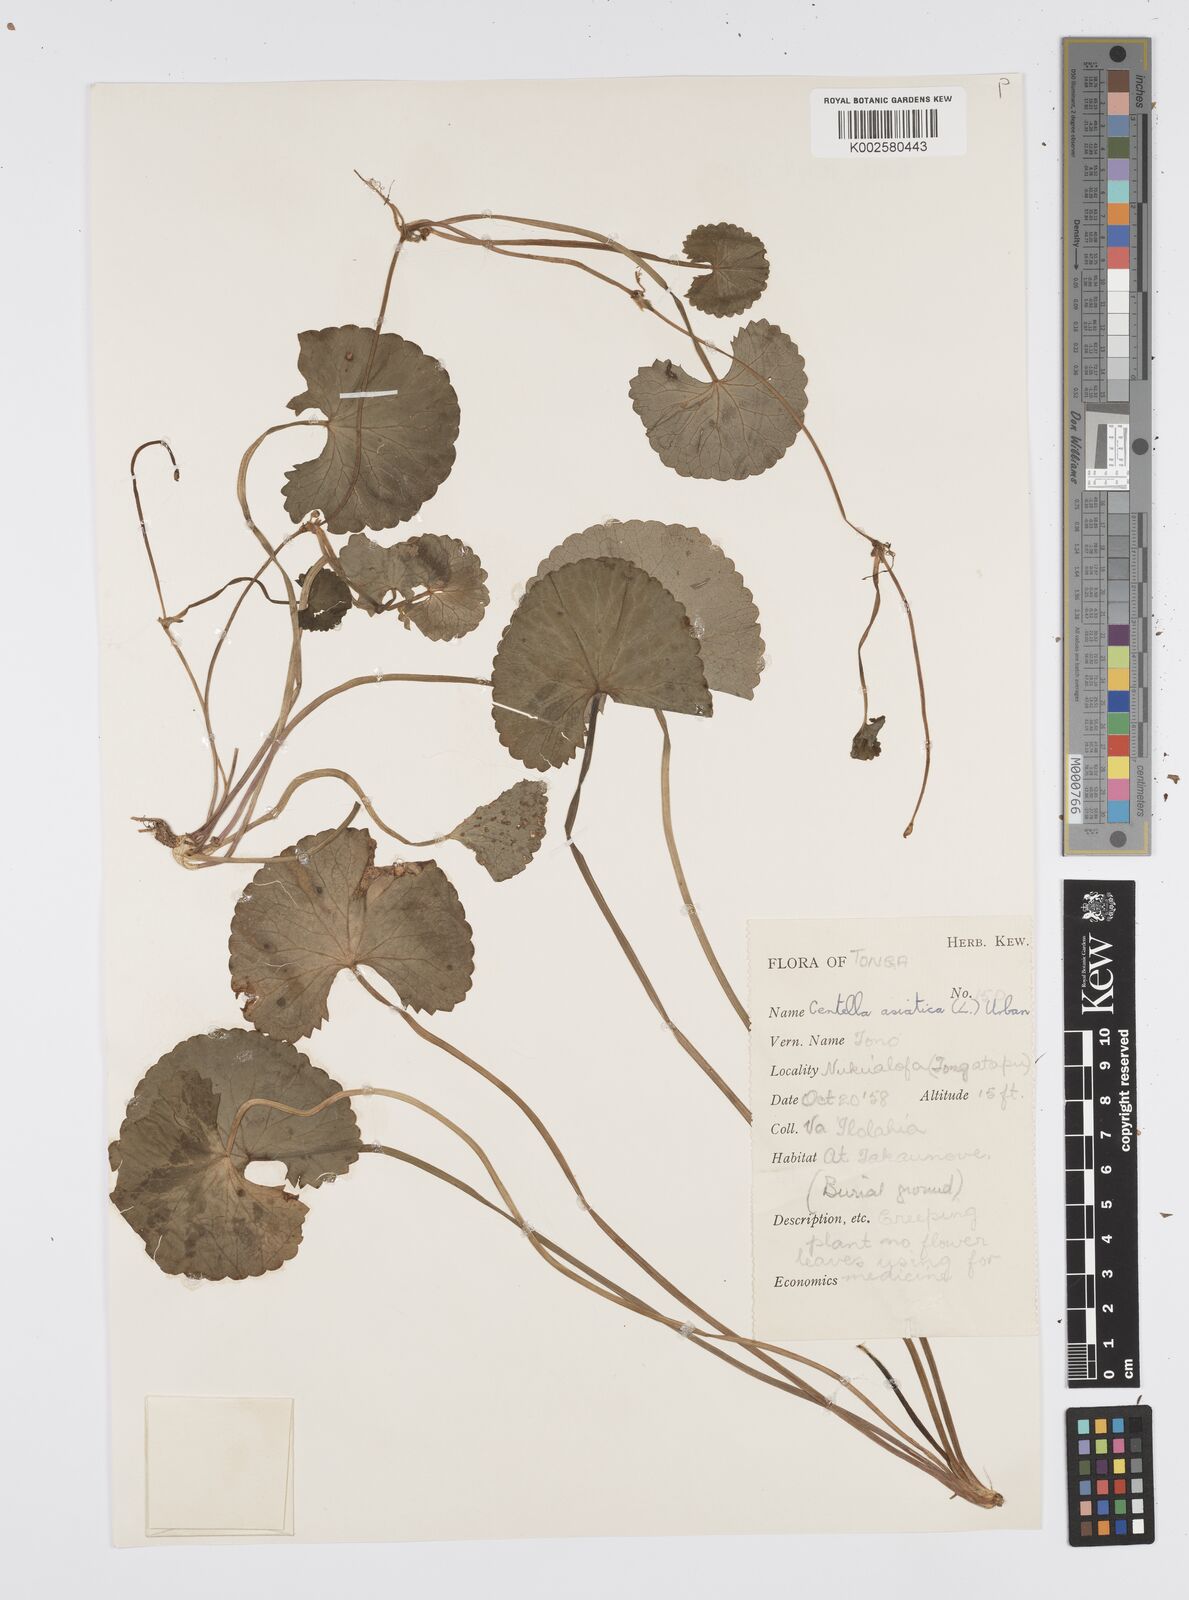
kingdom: Plantae
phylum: Tracheophyta
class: Magnoliopsida
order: Apiales
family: Apiaceae
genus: Centella
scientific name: Centella asiatica
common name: Spadeleaf
